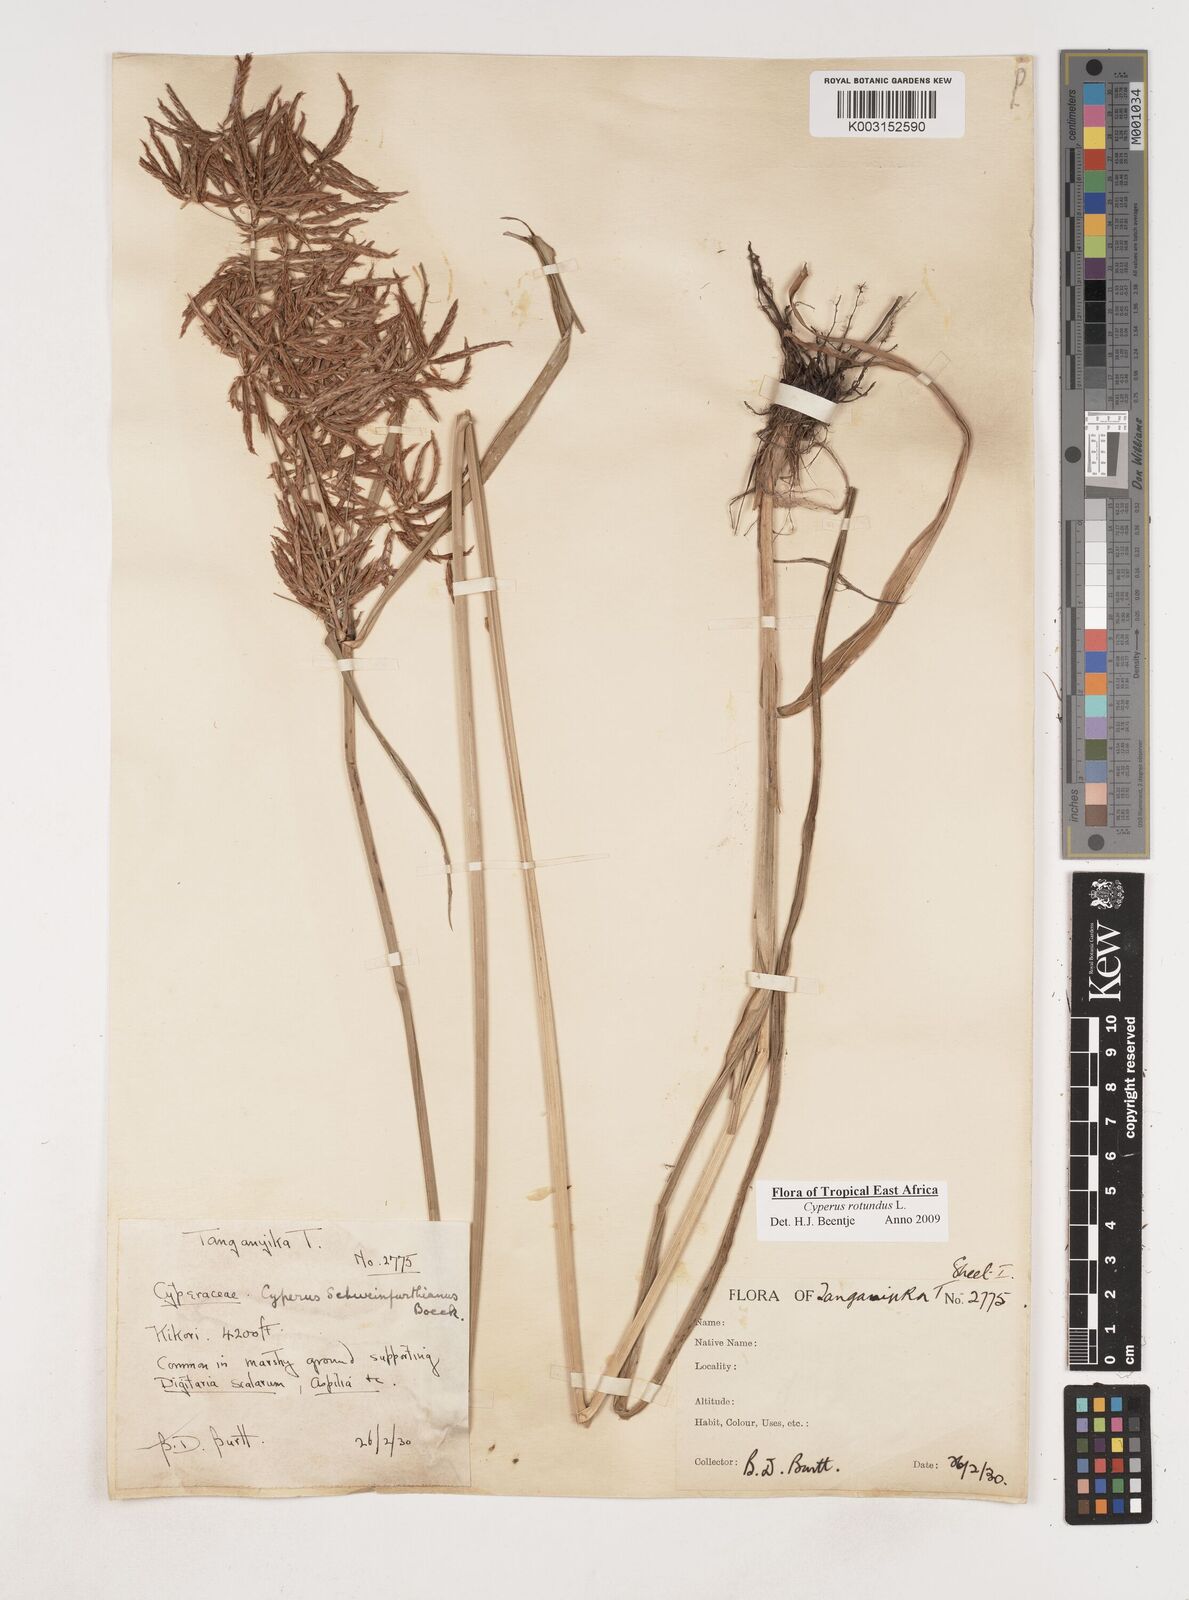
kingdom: Plantae
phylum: Tracheophyta
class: Liliopsida
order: Poales
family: Cyperaceae
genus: Cyperus
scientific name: Cyperus rotundus
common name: Nutgrass
